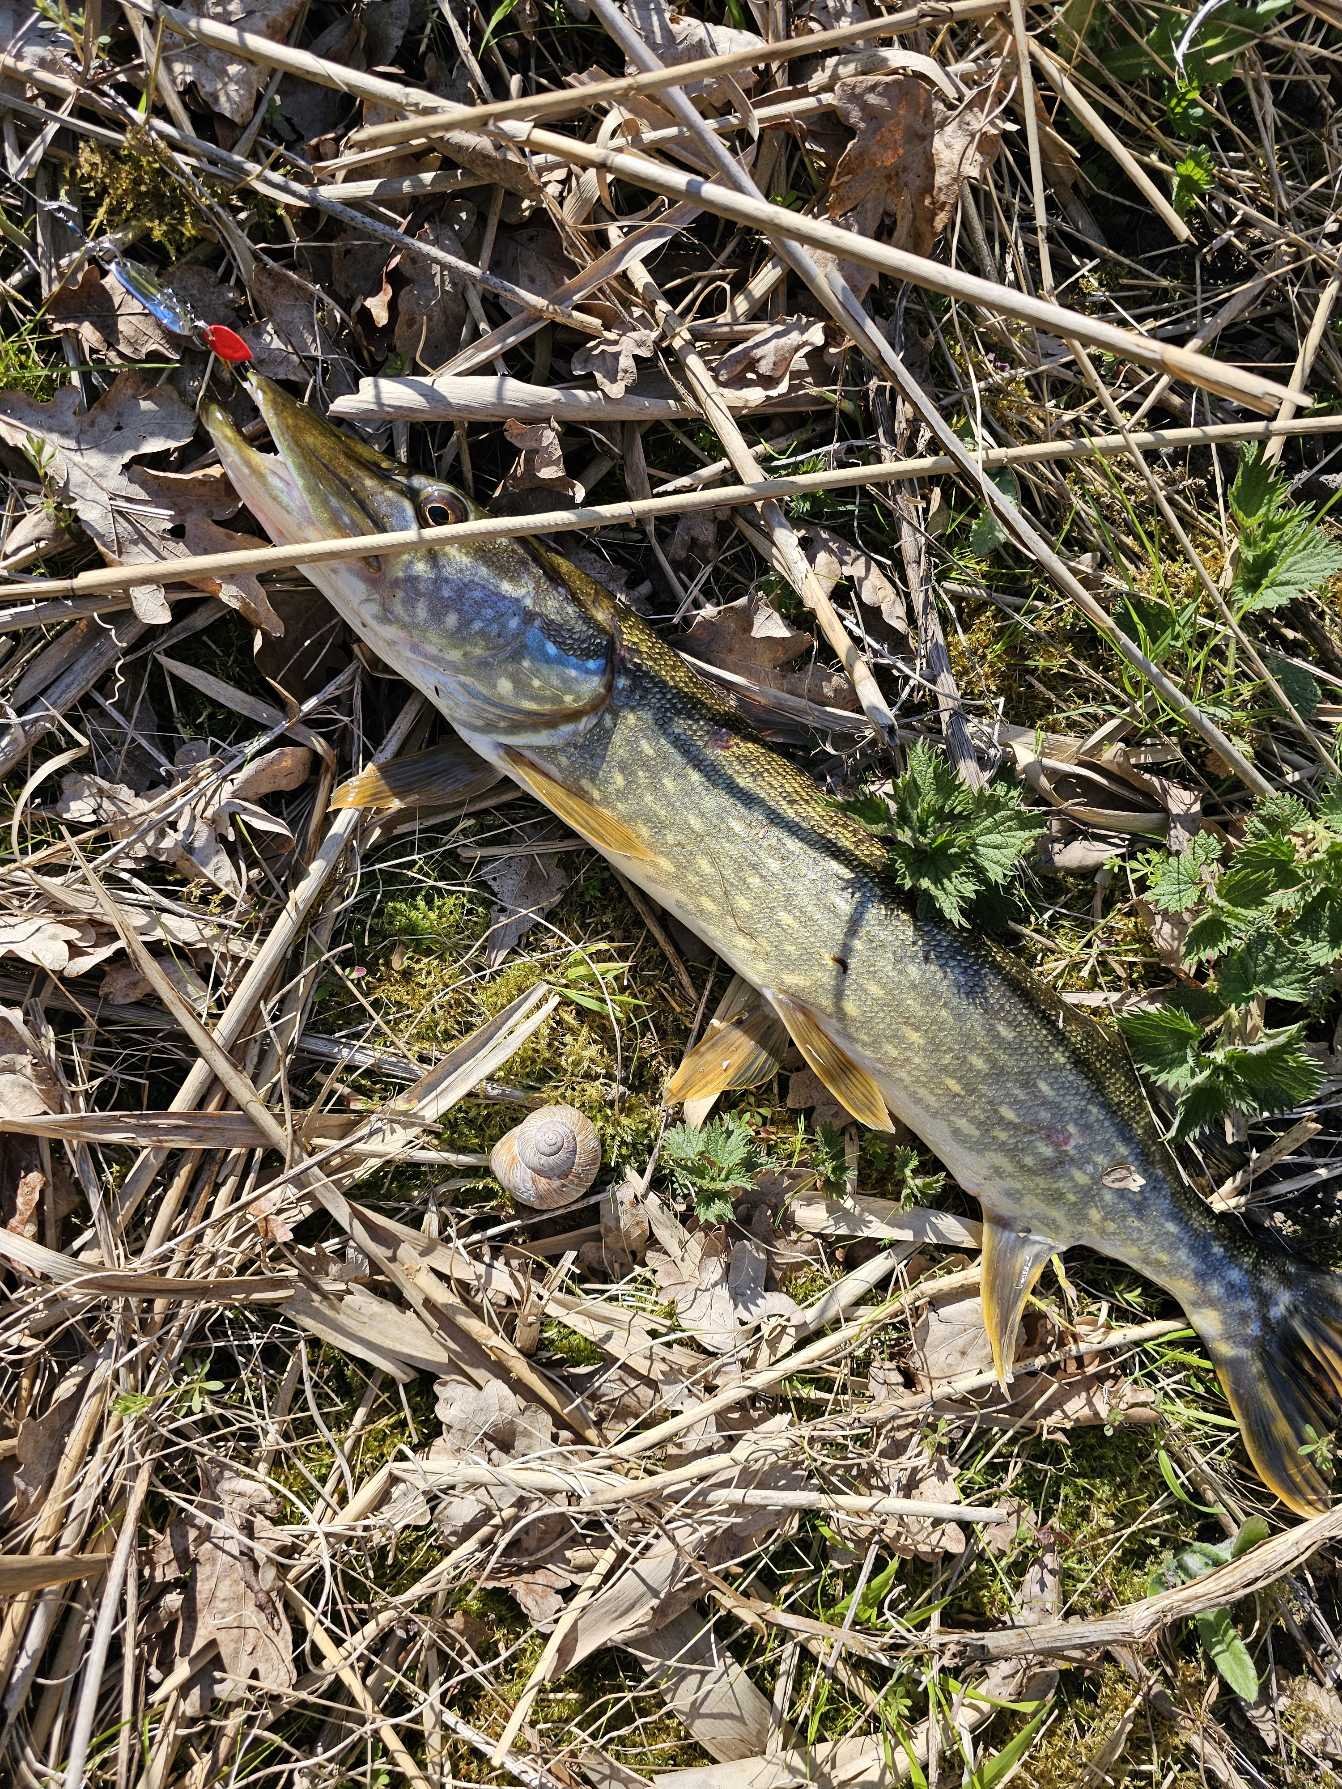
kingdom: Animalia
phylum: Chordata
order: Esociformes
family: Esocidae
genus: Esox
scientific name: Esox lucius
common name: Gedde
